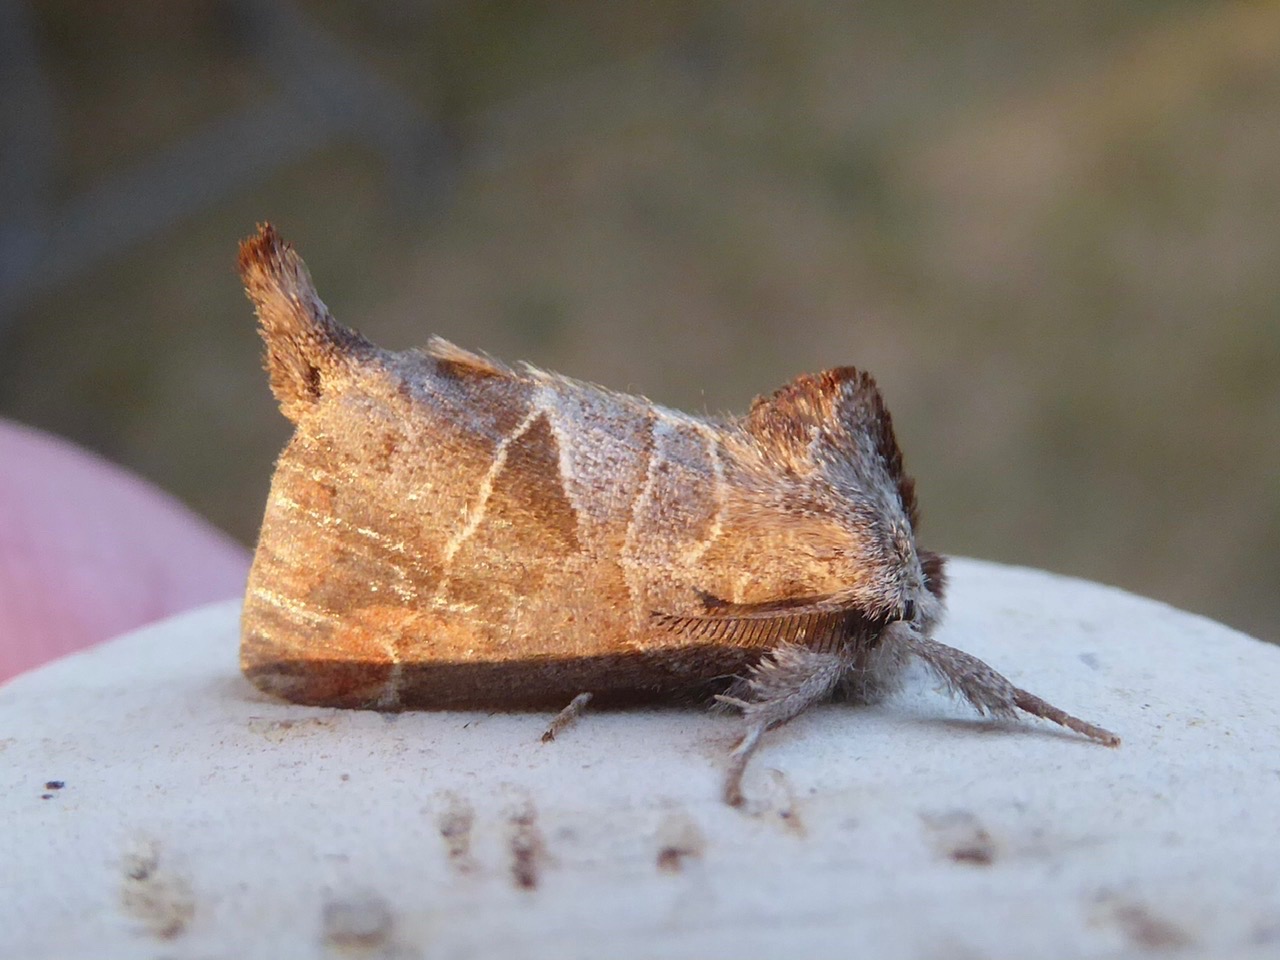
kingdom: Animalia
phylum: Arthropoda
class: Insecta
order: Lepidoptera
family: Notodontidae
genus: Clostera
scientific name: Clostera pigra
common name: Chokoladeplet
